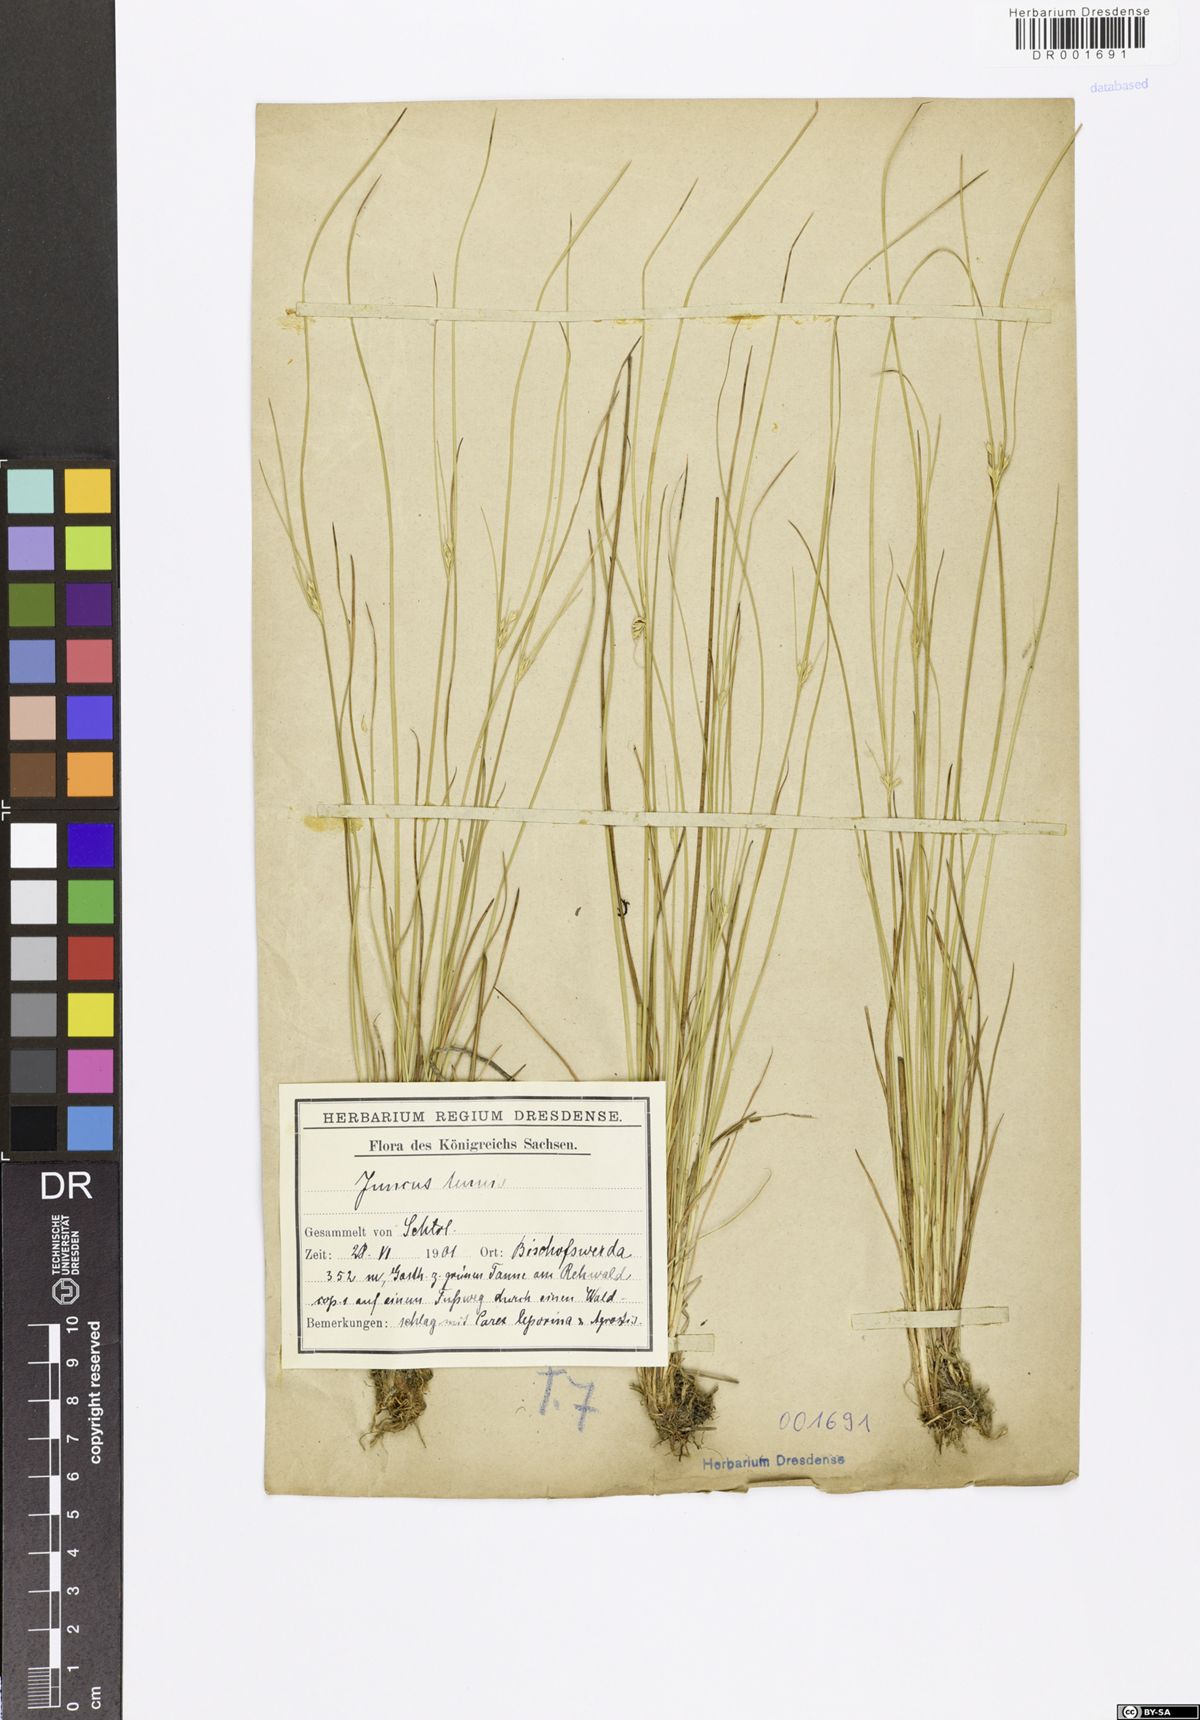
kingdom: Plantae
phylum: Tracheophyta
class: Liliopsida
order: Poales
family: Juncaceae
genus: Juncus
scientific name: Juncus tenuis
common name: Slender rush
